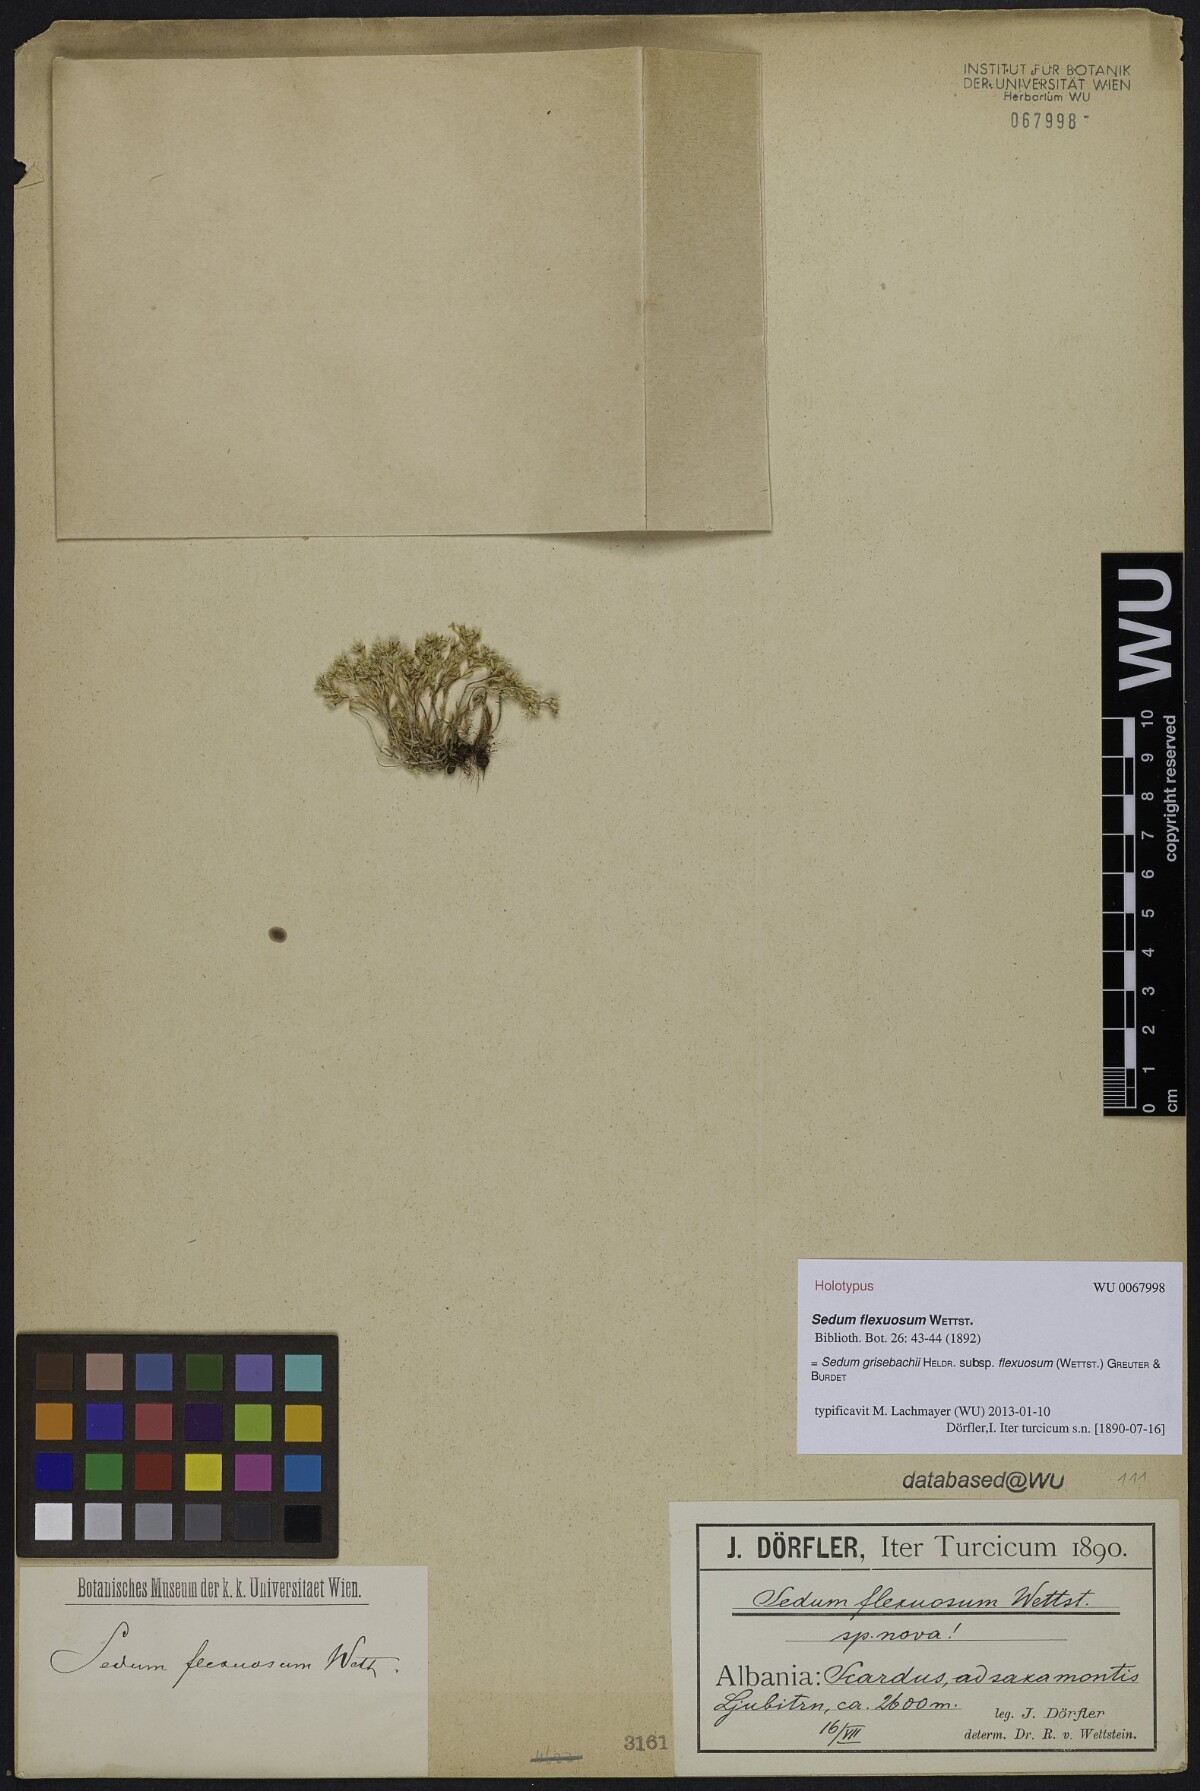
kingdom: Plantae
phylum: Tracheophyta
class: Magnoliopsida
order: Saxifragales
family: Crassulaceae
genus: Sedum
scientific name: Sedum grisebachii
